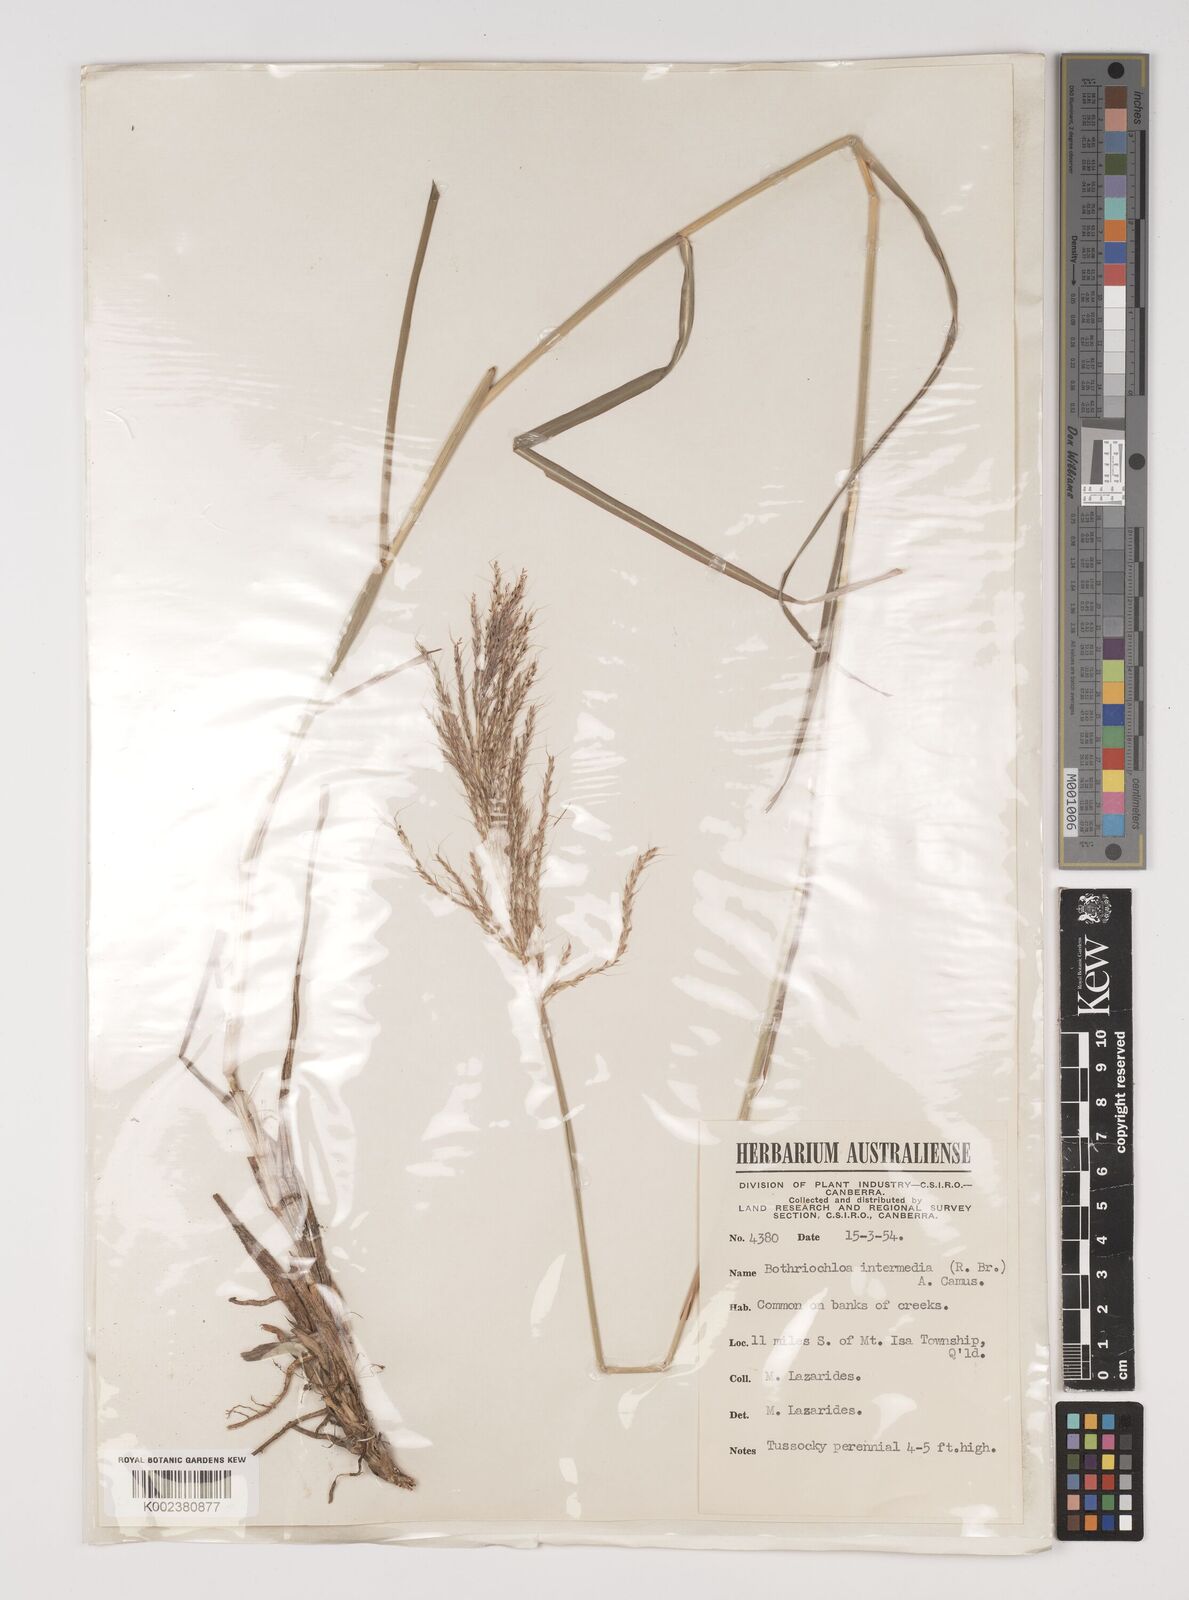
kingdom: Plantae
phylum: Tracheophyta
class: Liliopsida
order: Poales
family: Poaceae
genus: Bothriochloa
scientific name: Bothriochloa bladhii
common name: Caucasian bluestem
